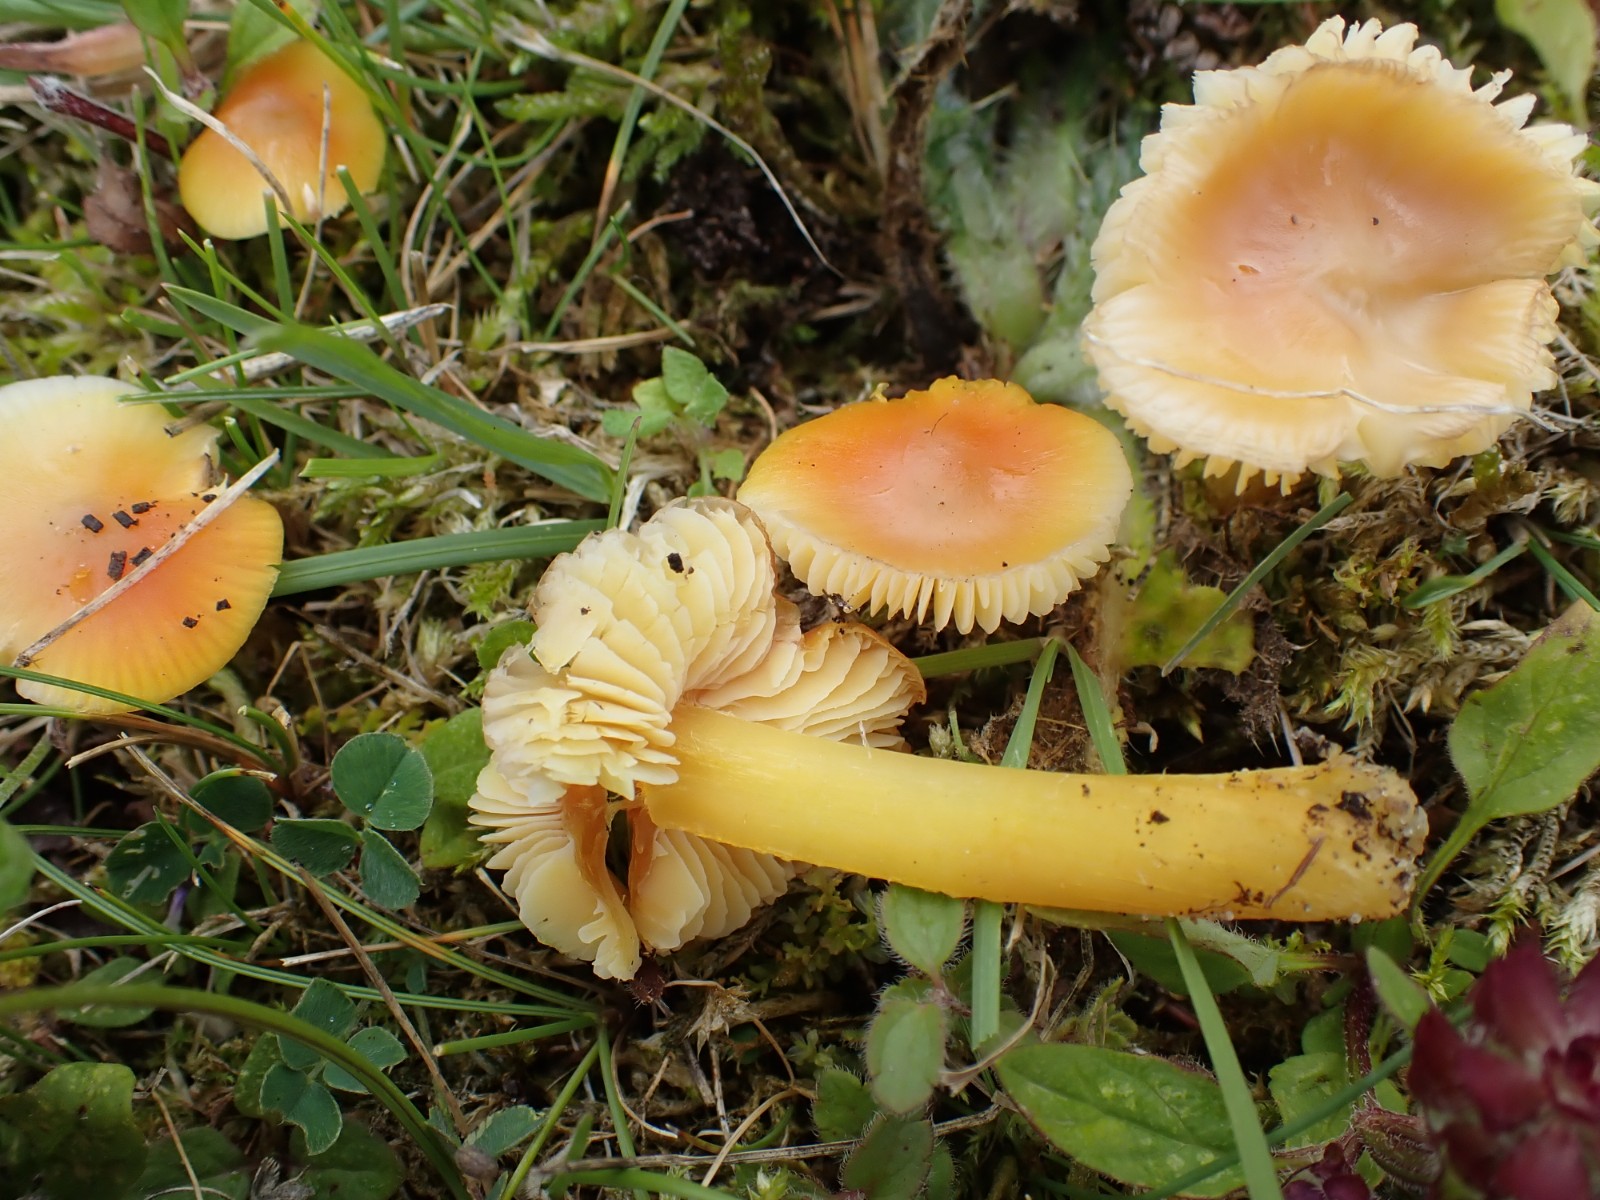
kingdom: Fungi
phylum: Basidiomycota
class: Agaricomycetes
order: Agaricales
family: Hygrophoraceae
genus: Hygrocybe
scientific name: Hygrocybe chlorophana
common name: gul vokshat
